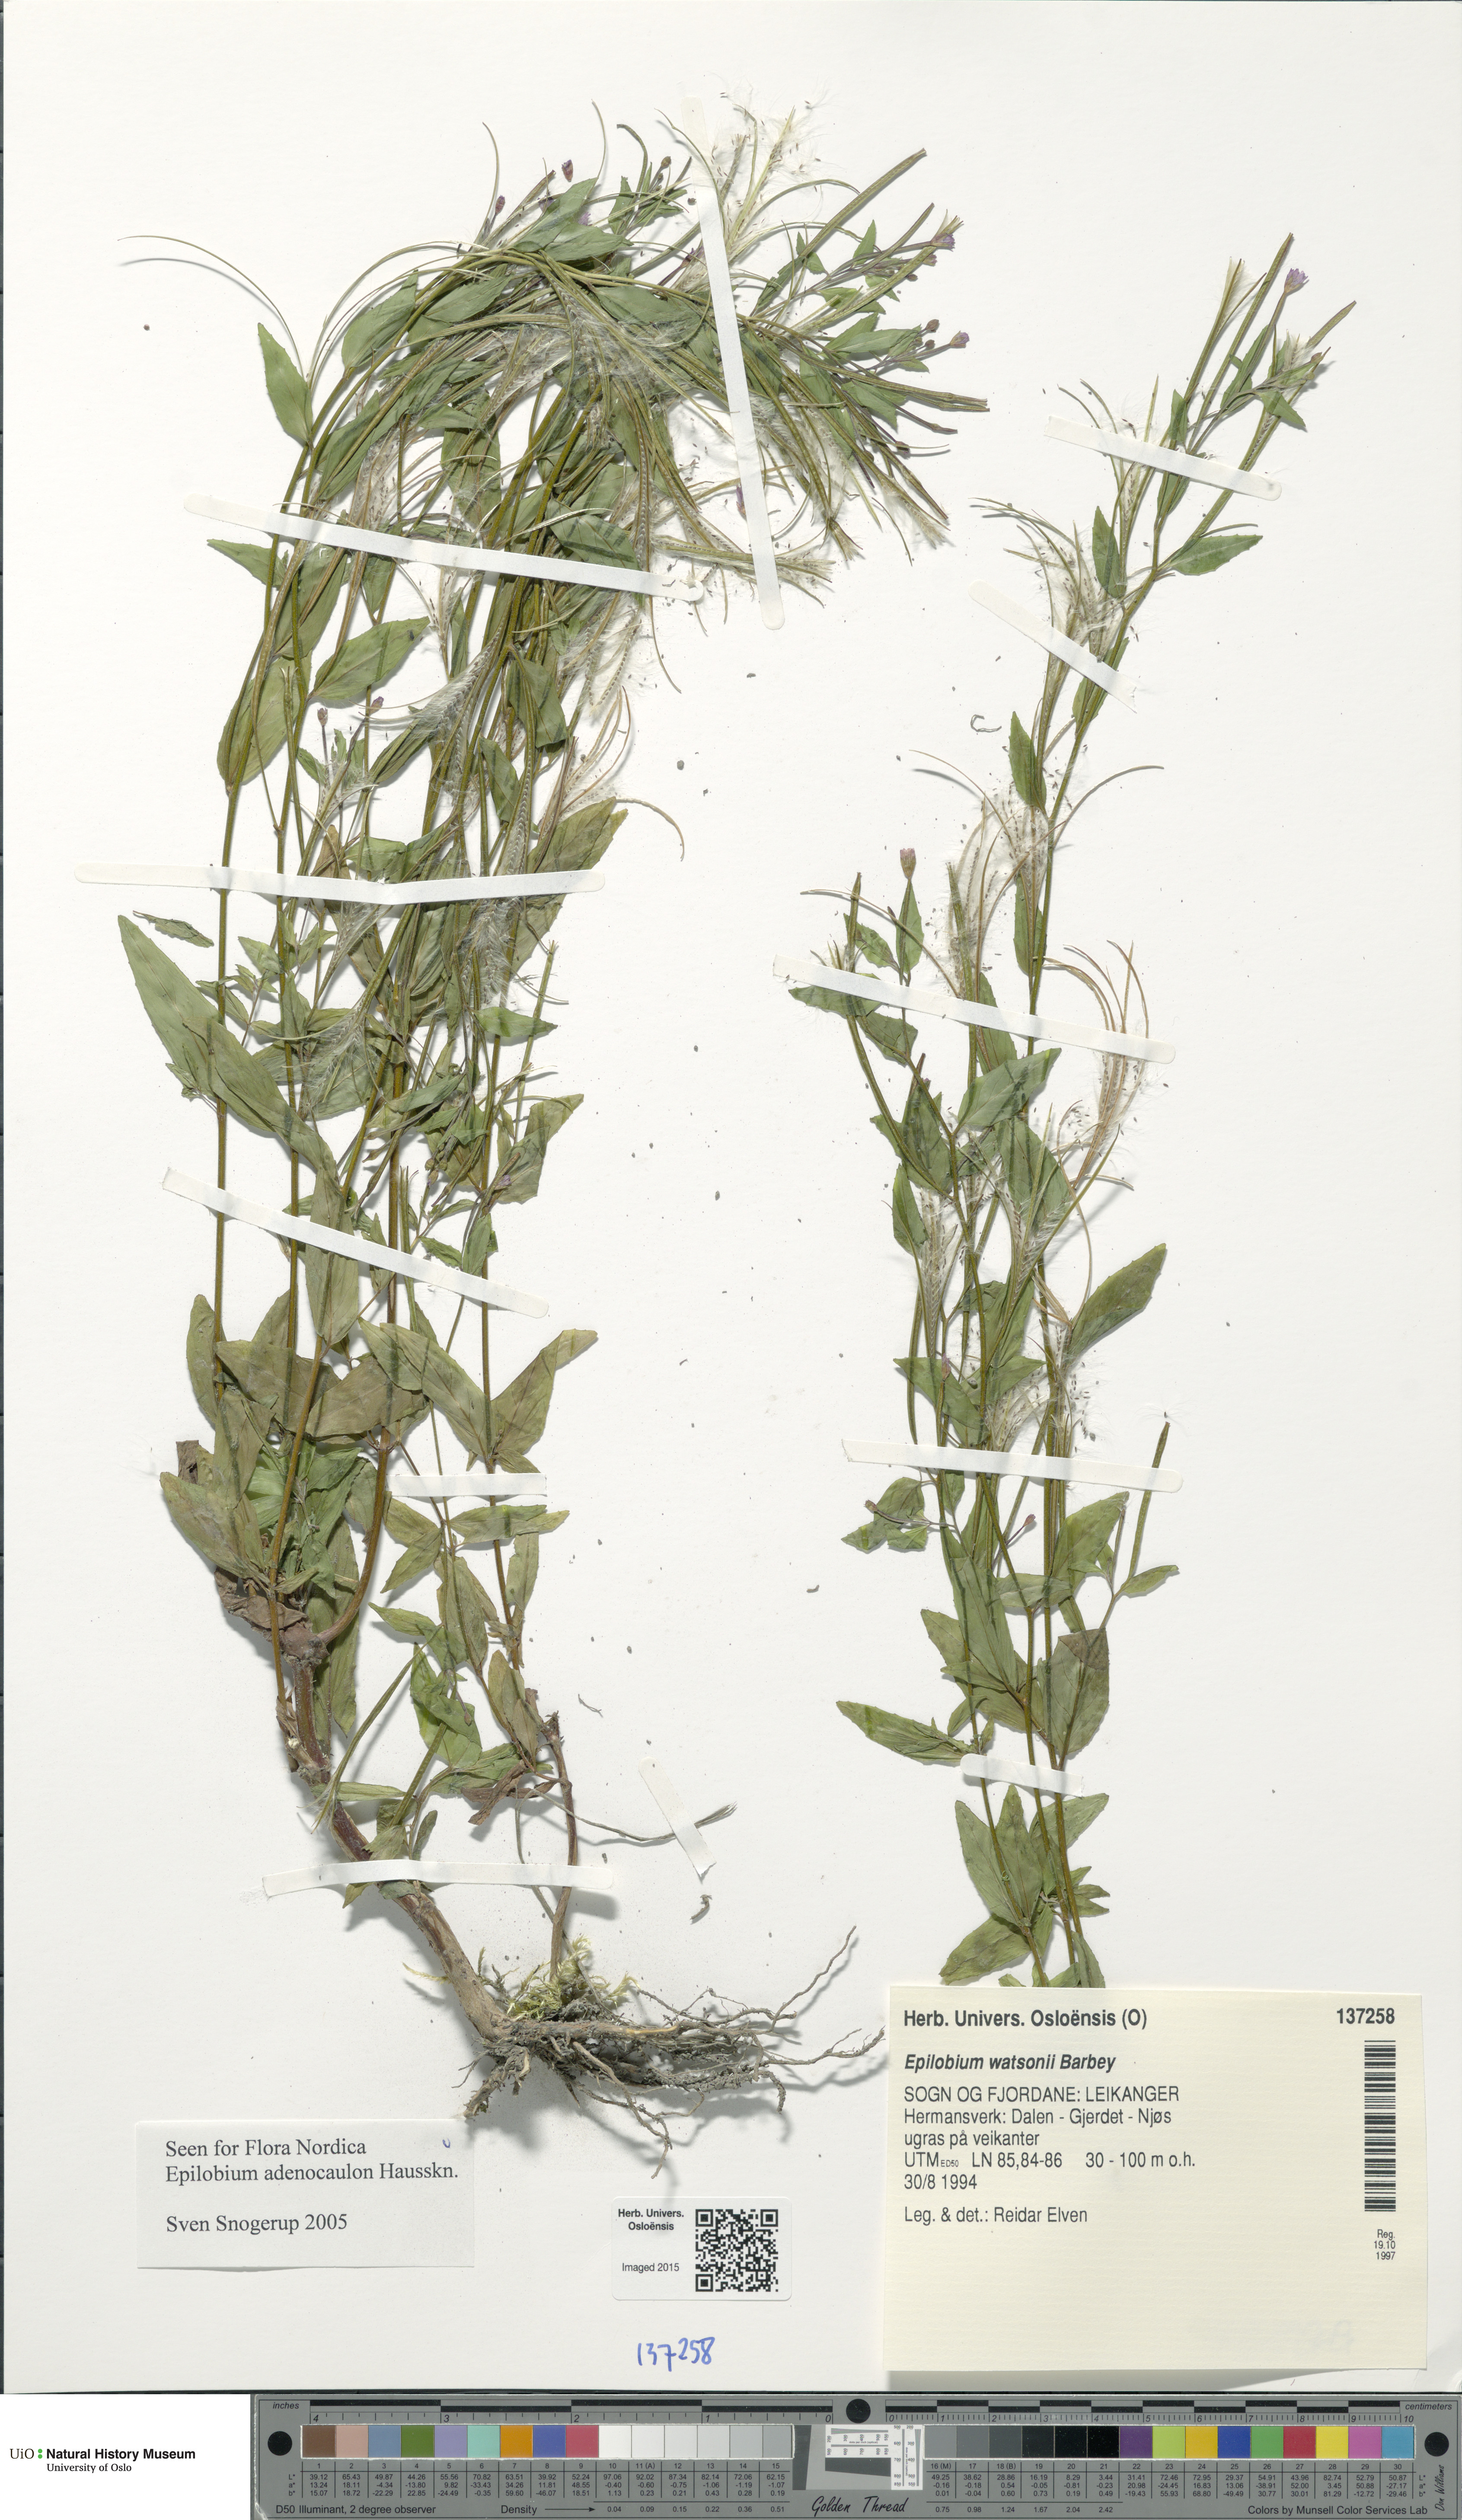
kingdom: Plantae
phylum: Tracheophyta
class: Magnoliopsida
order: Myrtales
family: Onagraceae
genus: Epilobium
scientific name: Epilobium ciliatum
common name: American willowherb
